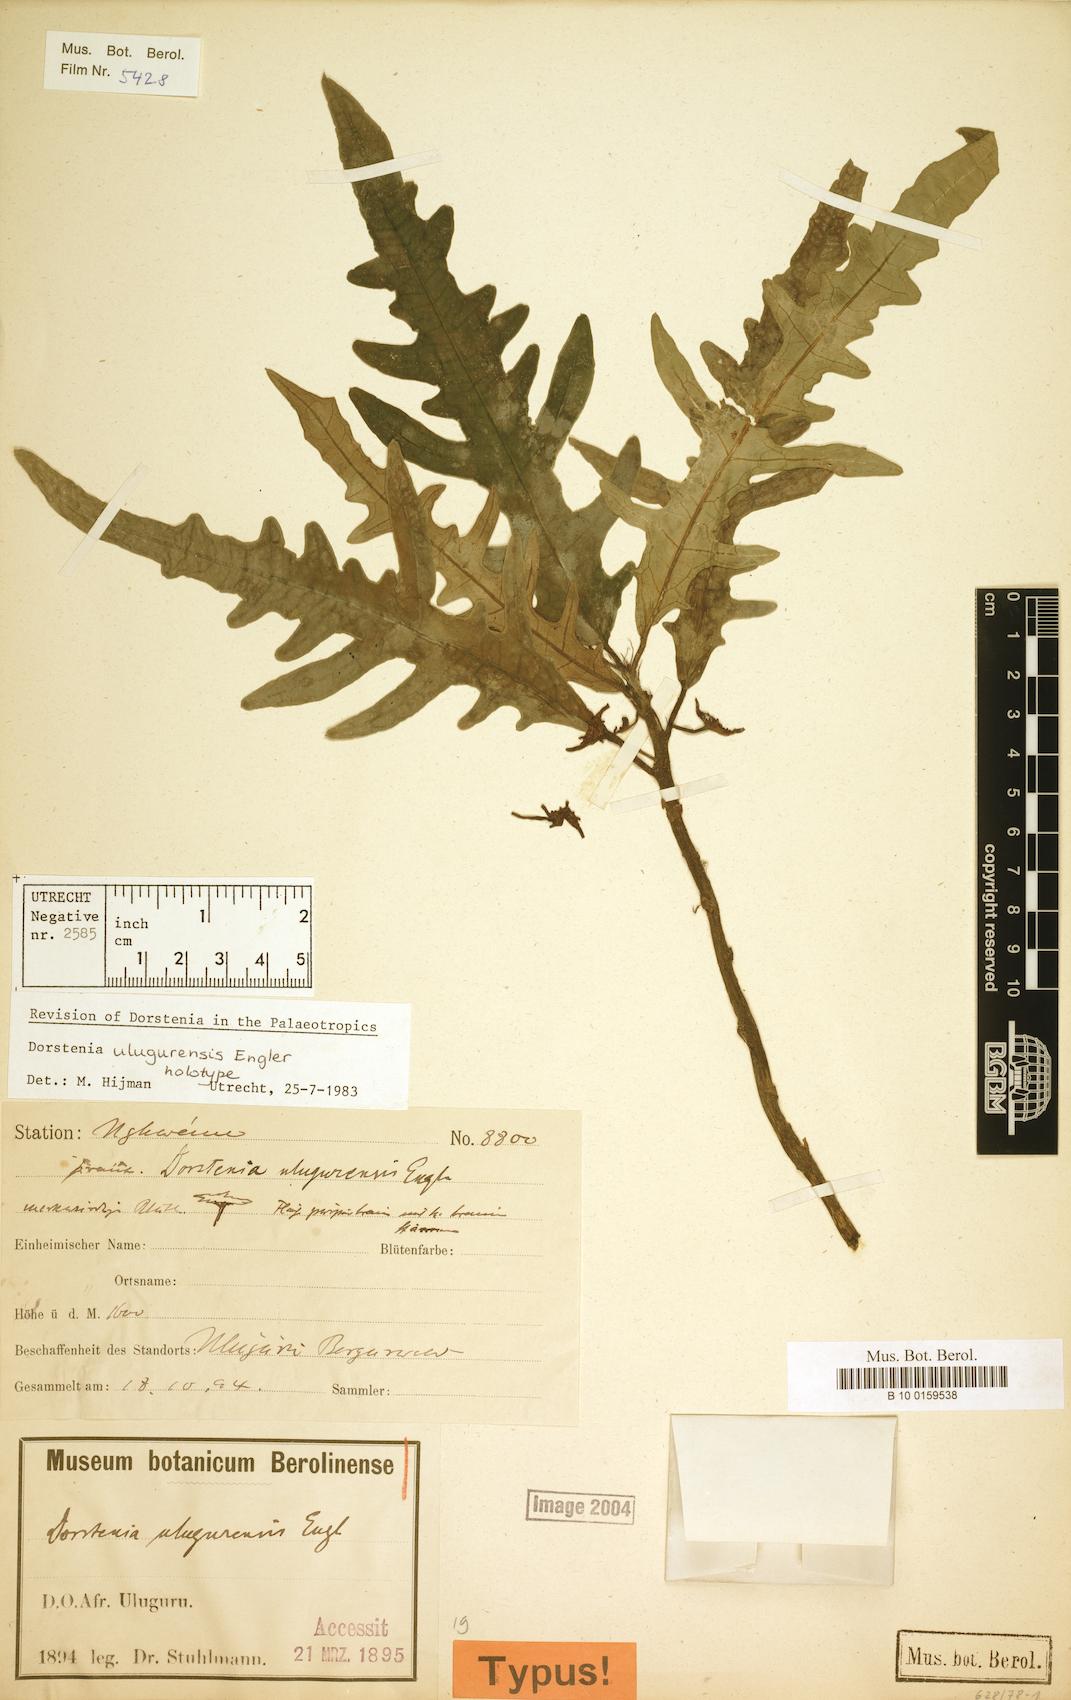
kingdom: Plantae
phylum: Tracheophyta
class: Magnoliopsida
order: Rosales
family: Moraceae
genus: Dorstenia
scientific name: Dorstenia ulugurensis
